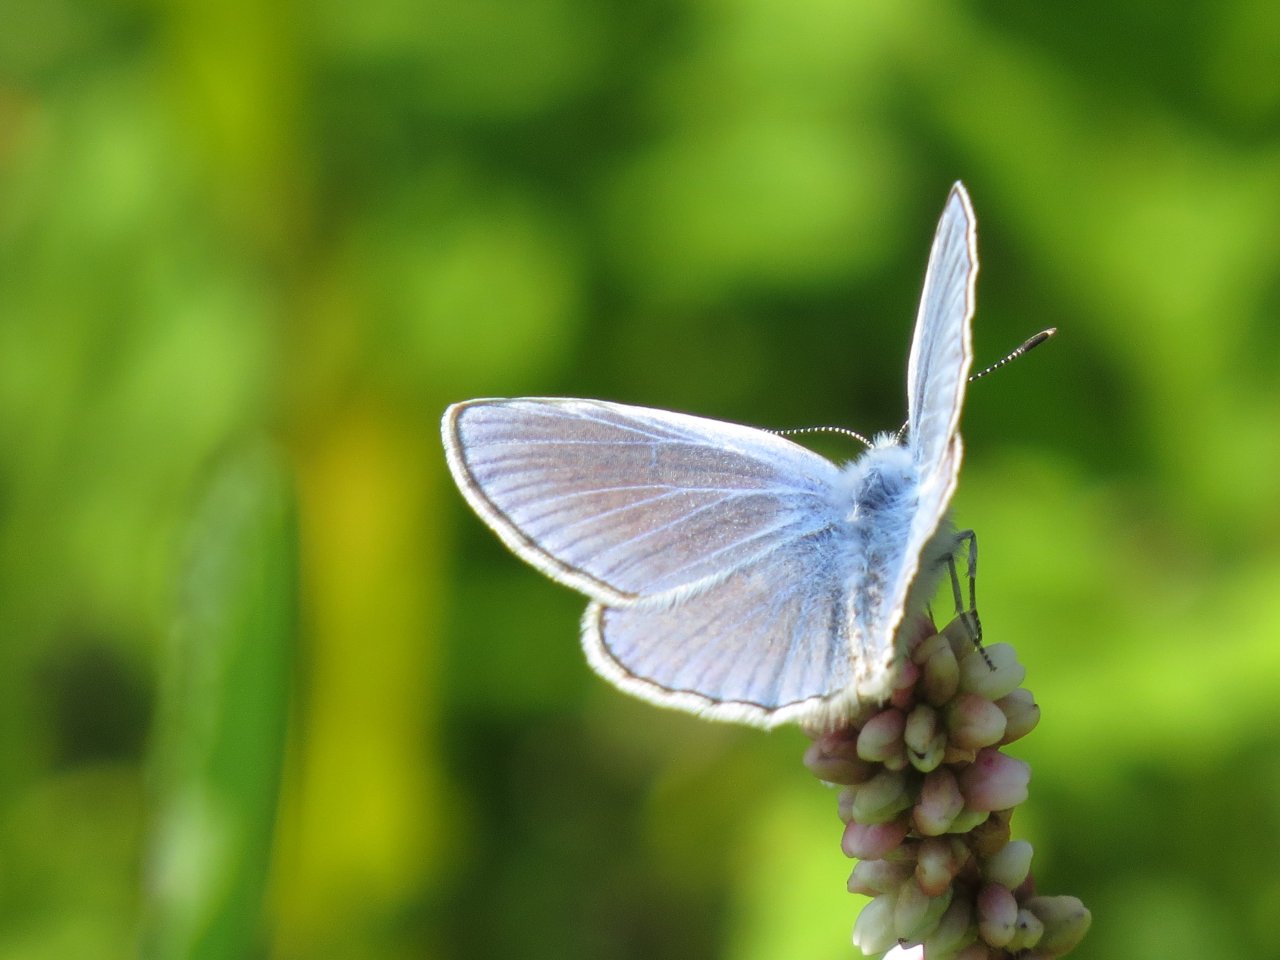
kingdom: Animalia
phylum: Arthropoda
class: Insecta
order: Lepidoptera
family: Lycaenidae
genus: Polyommatus
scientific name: Polyommatus icarus
